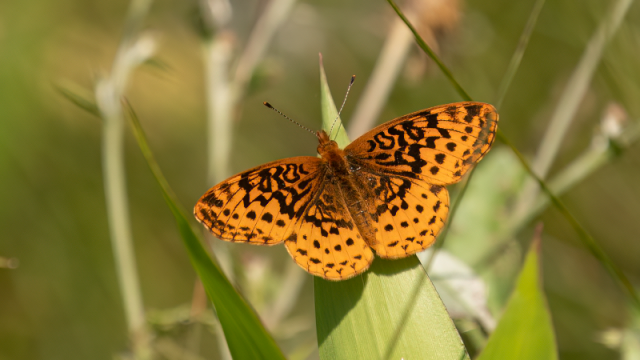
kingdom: Animalia
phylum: Arthropoda
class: Insecta
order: Lepidoptera
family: Nymphalidae
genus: Clossiana
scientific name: Clossiana toddi
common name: Meadow Fritillary
